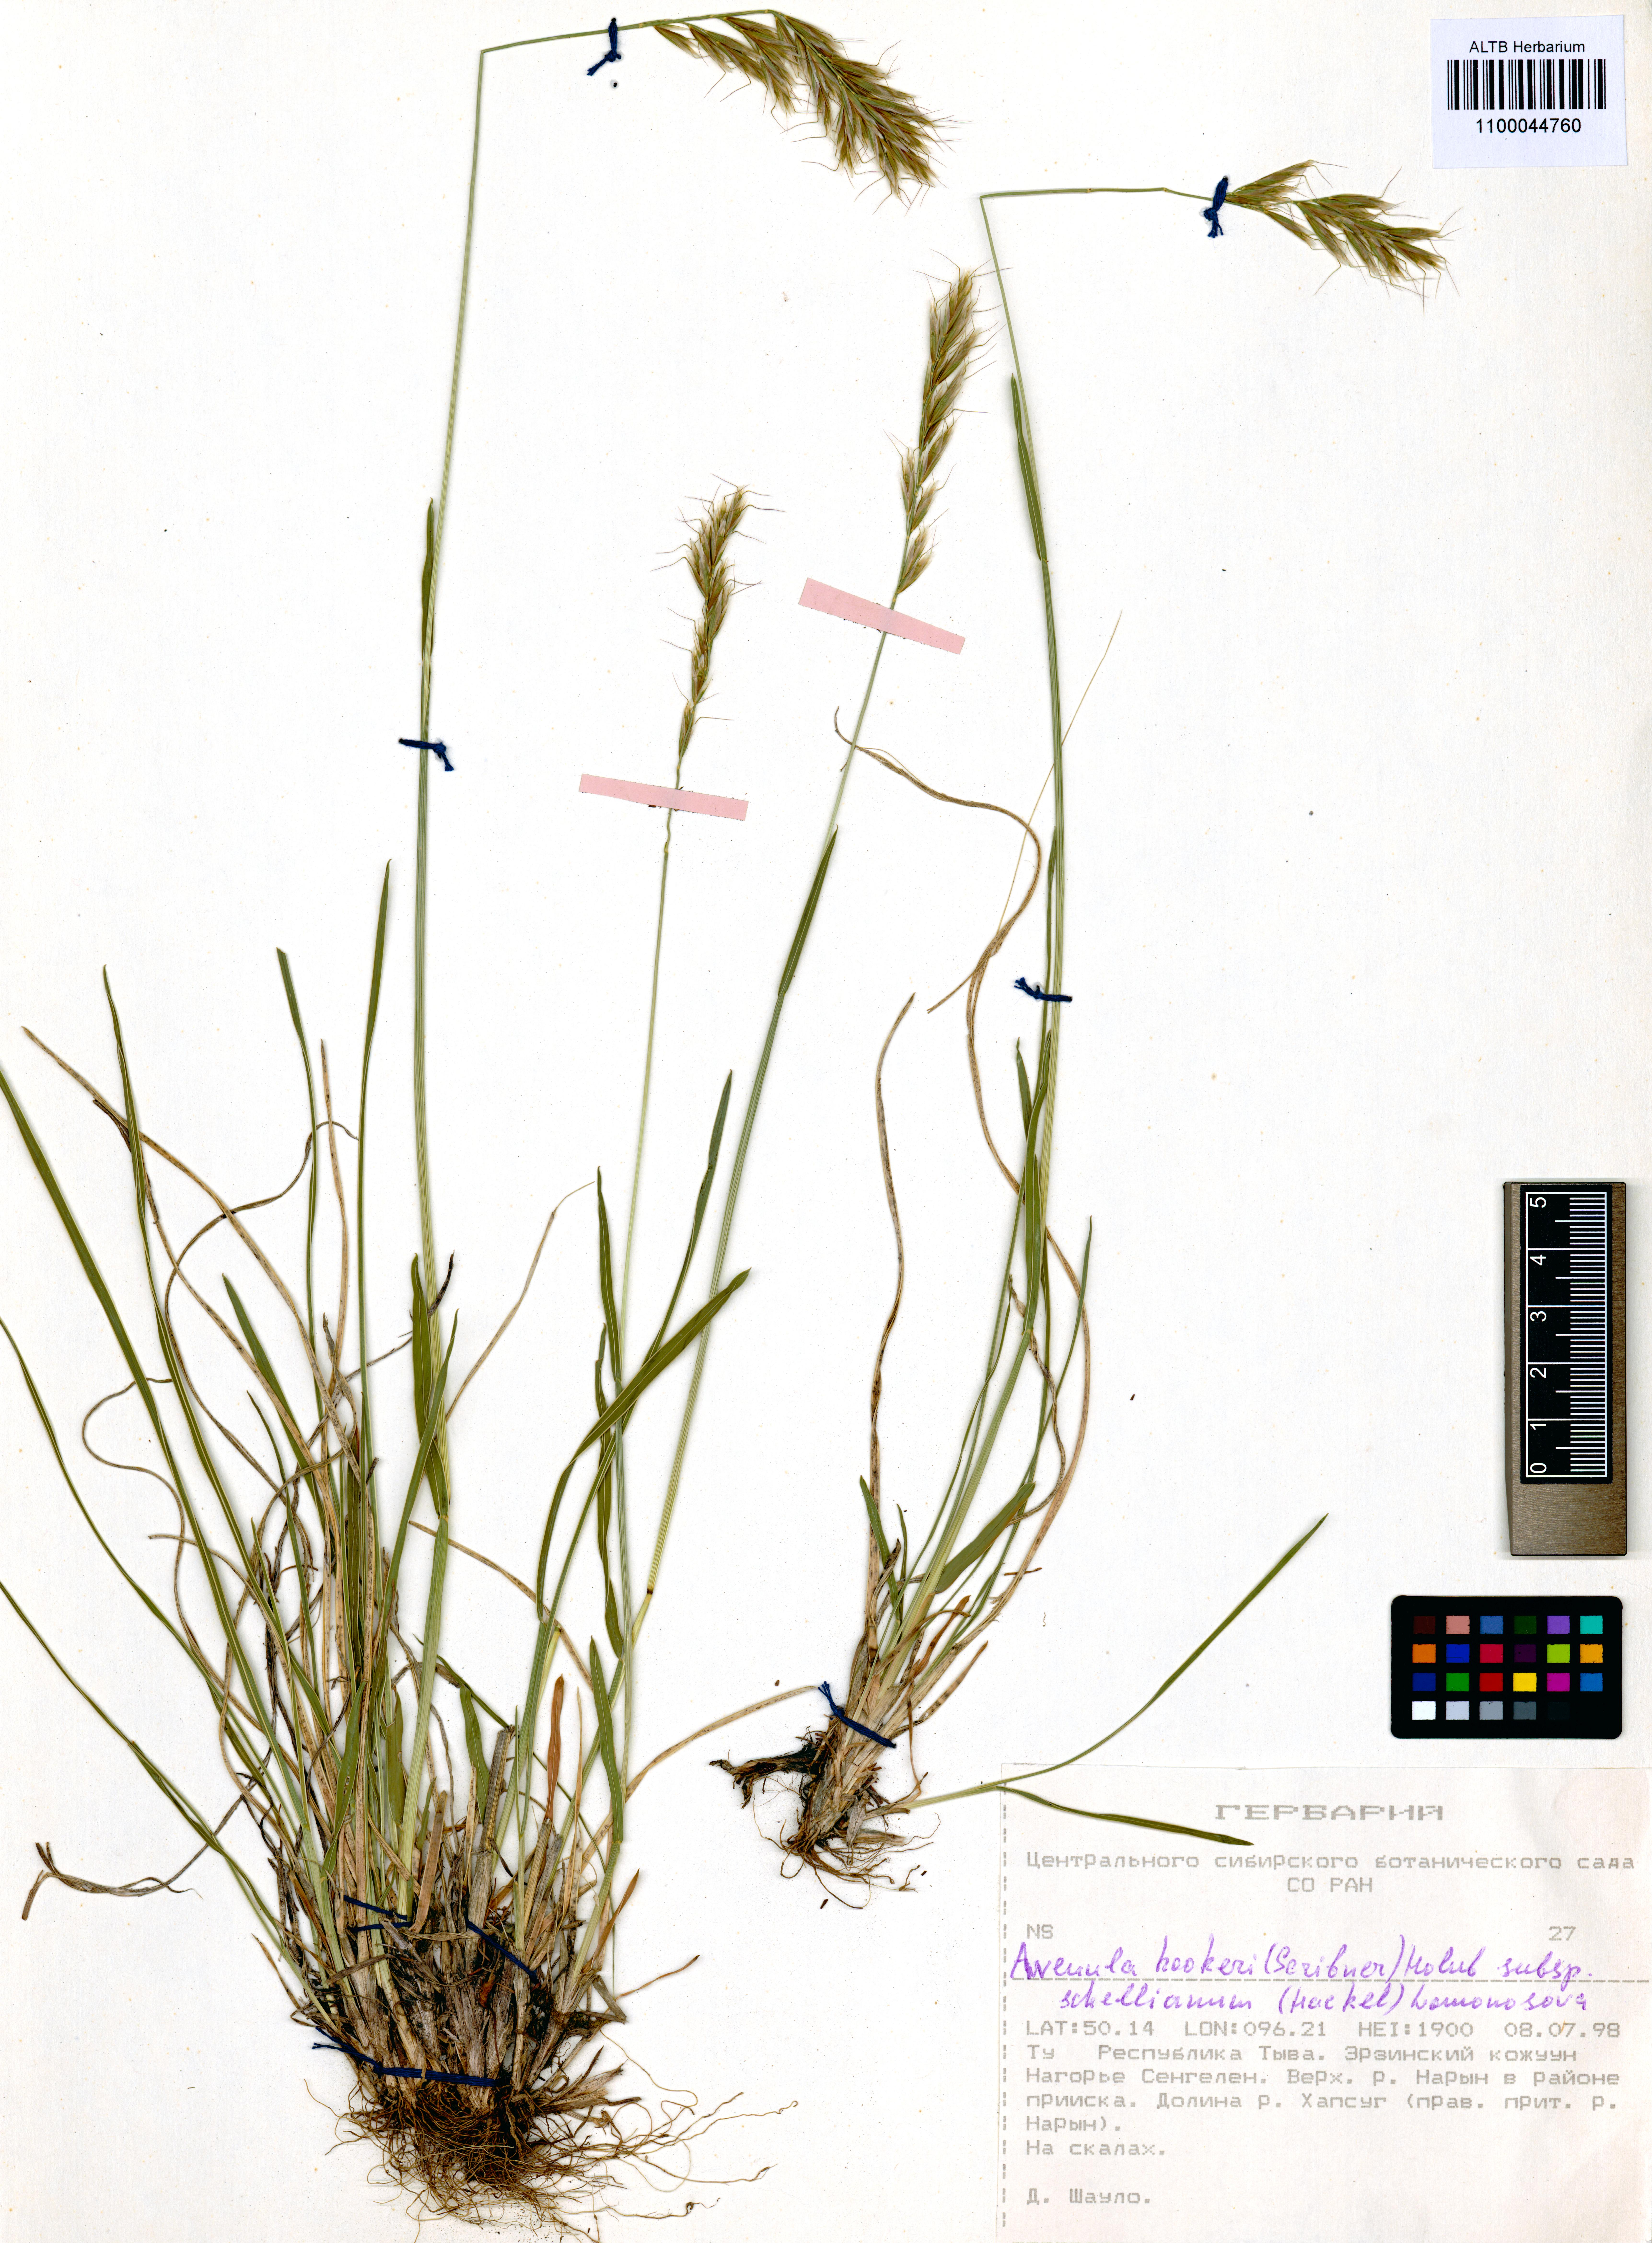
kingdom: Plantae
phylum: Tracheophyta
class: Liliopsida
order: Poales
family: Poaceae
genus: Helictochloa
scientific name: Helictochloa hookeri
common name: Hooker's alpine oatgrass
